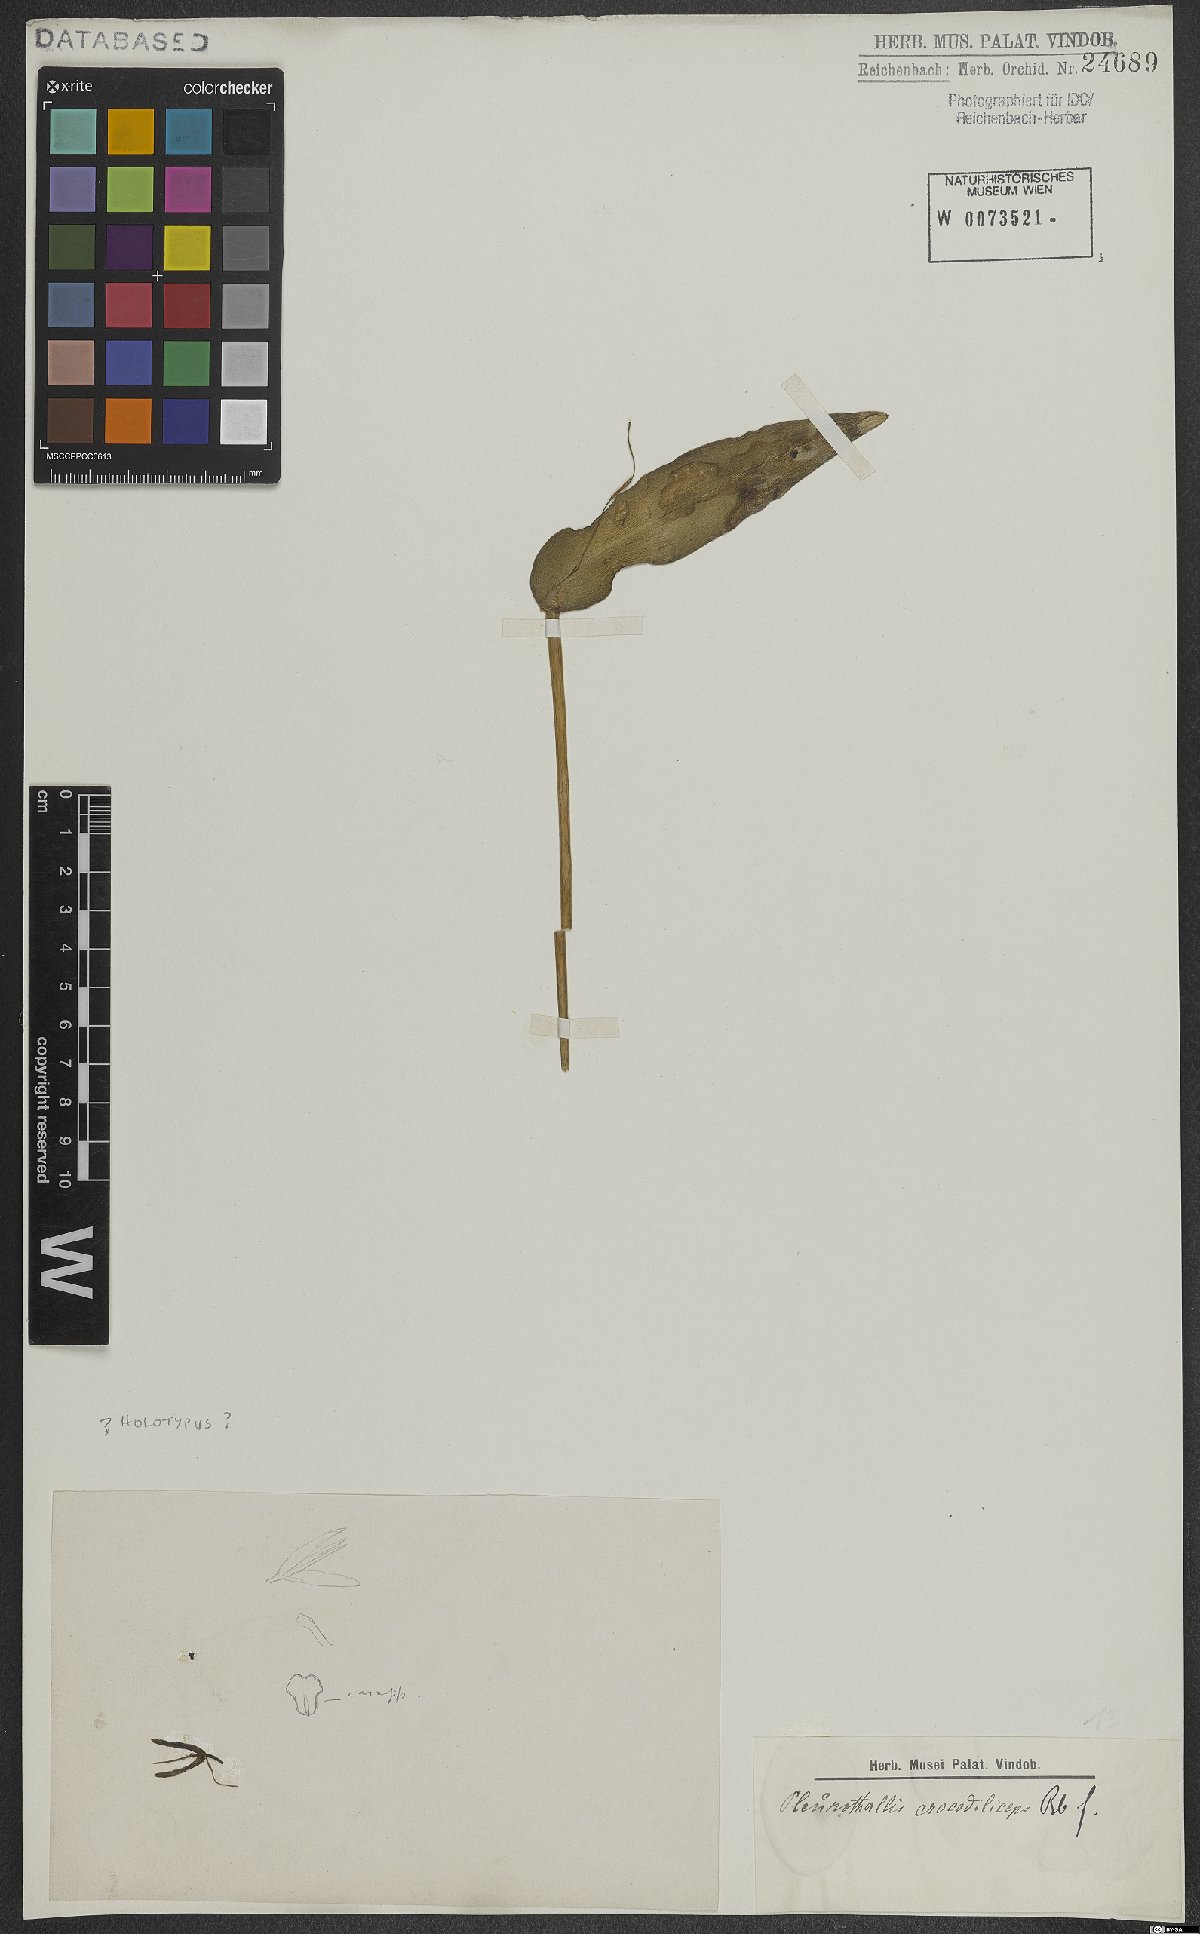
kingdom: Plantae
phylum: Tracheophyta
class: Liliopsida
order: Asparagales
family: Orchidaceae
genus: Pleurothallis
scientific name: Pleurothallis crocodiliceps
